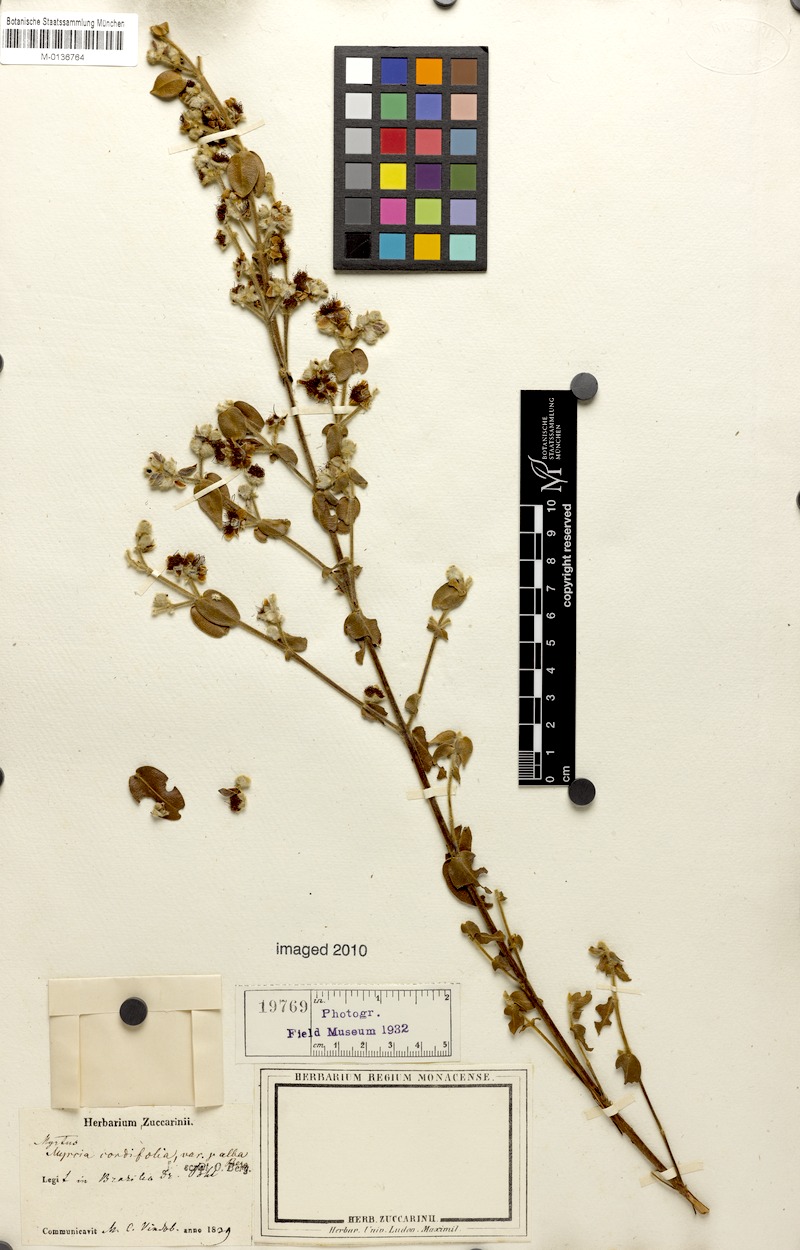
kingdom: Plantae
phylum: Tracheophyta
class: Magnoliopsida
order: Myrtales
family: Myrtaceae
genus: Myrcia
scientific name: Myrcia lasiantha
